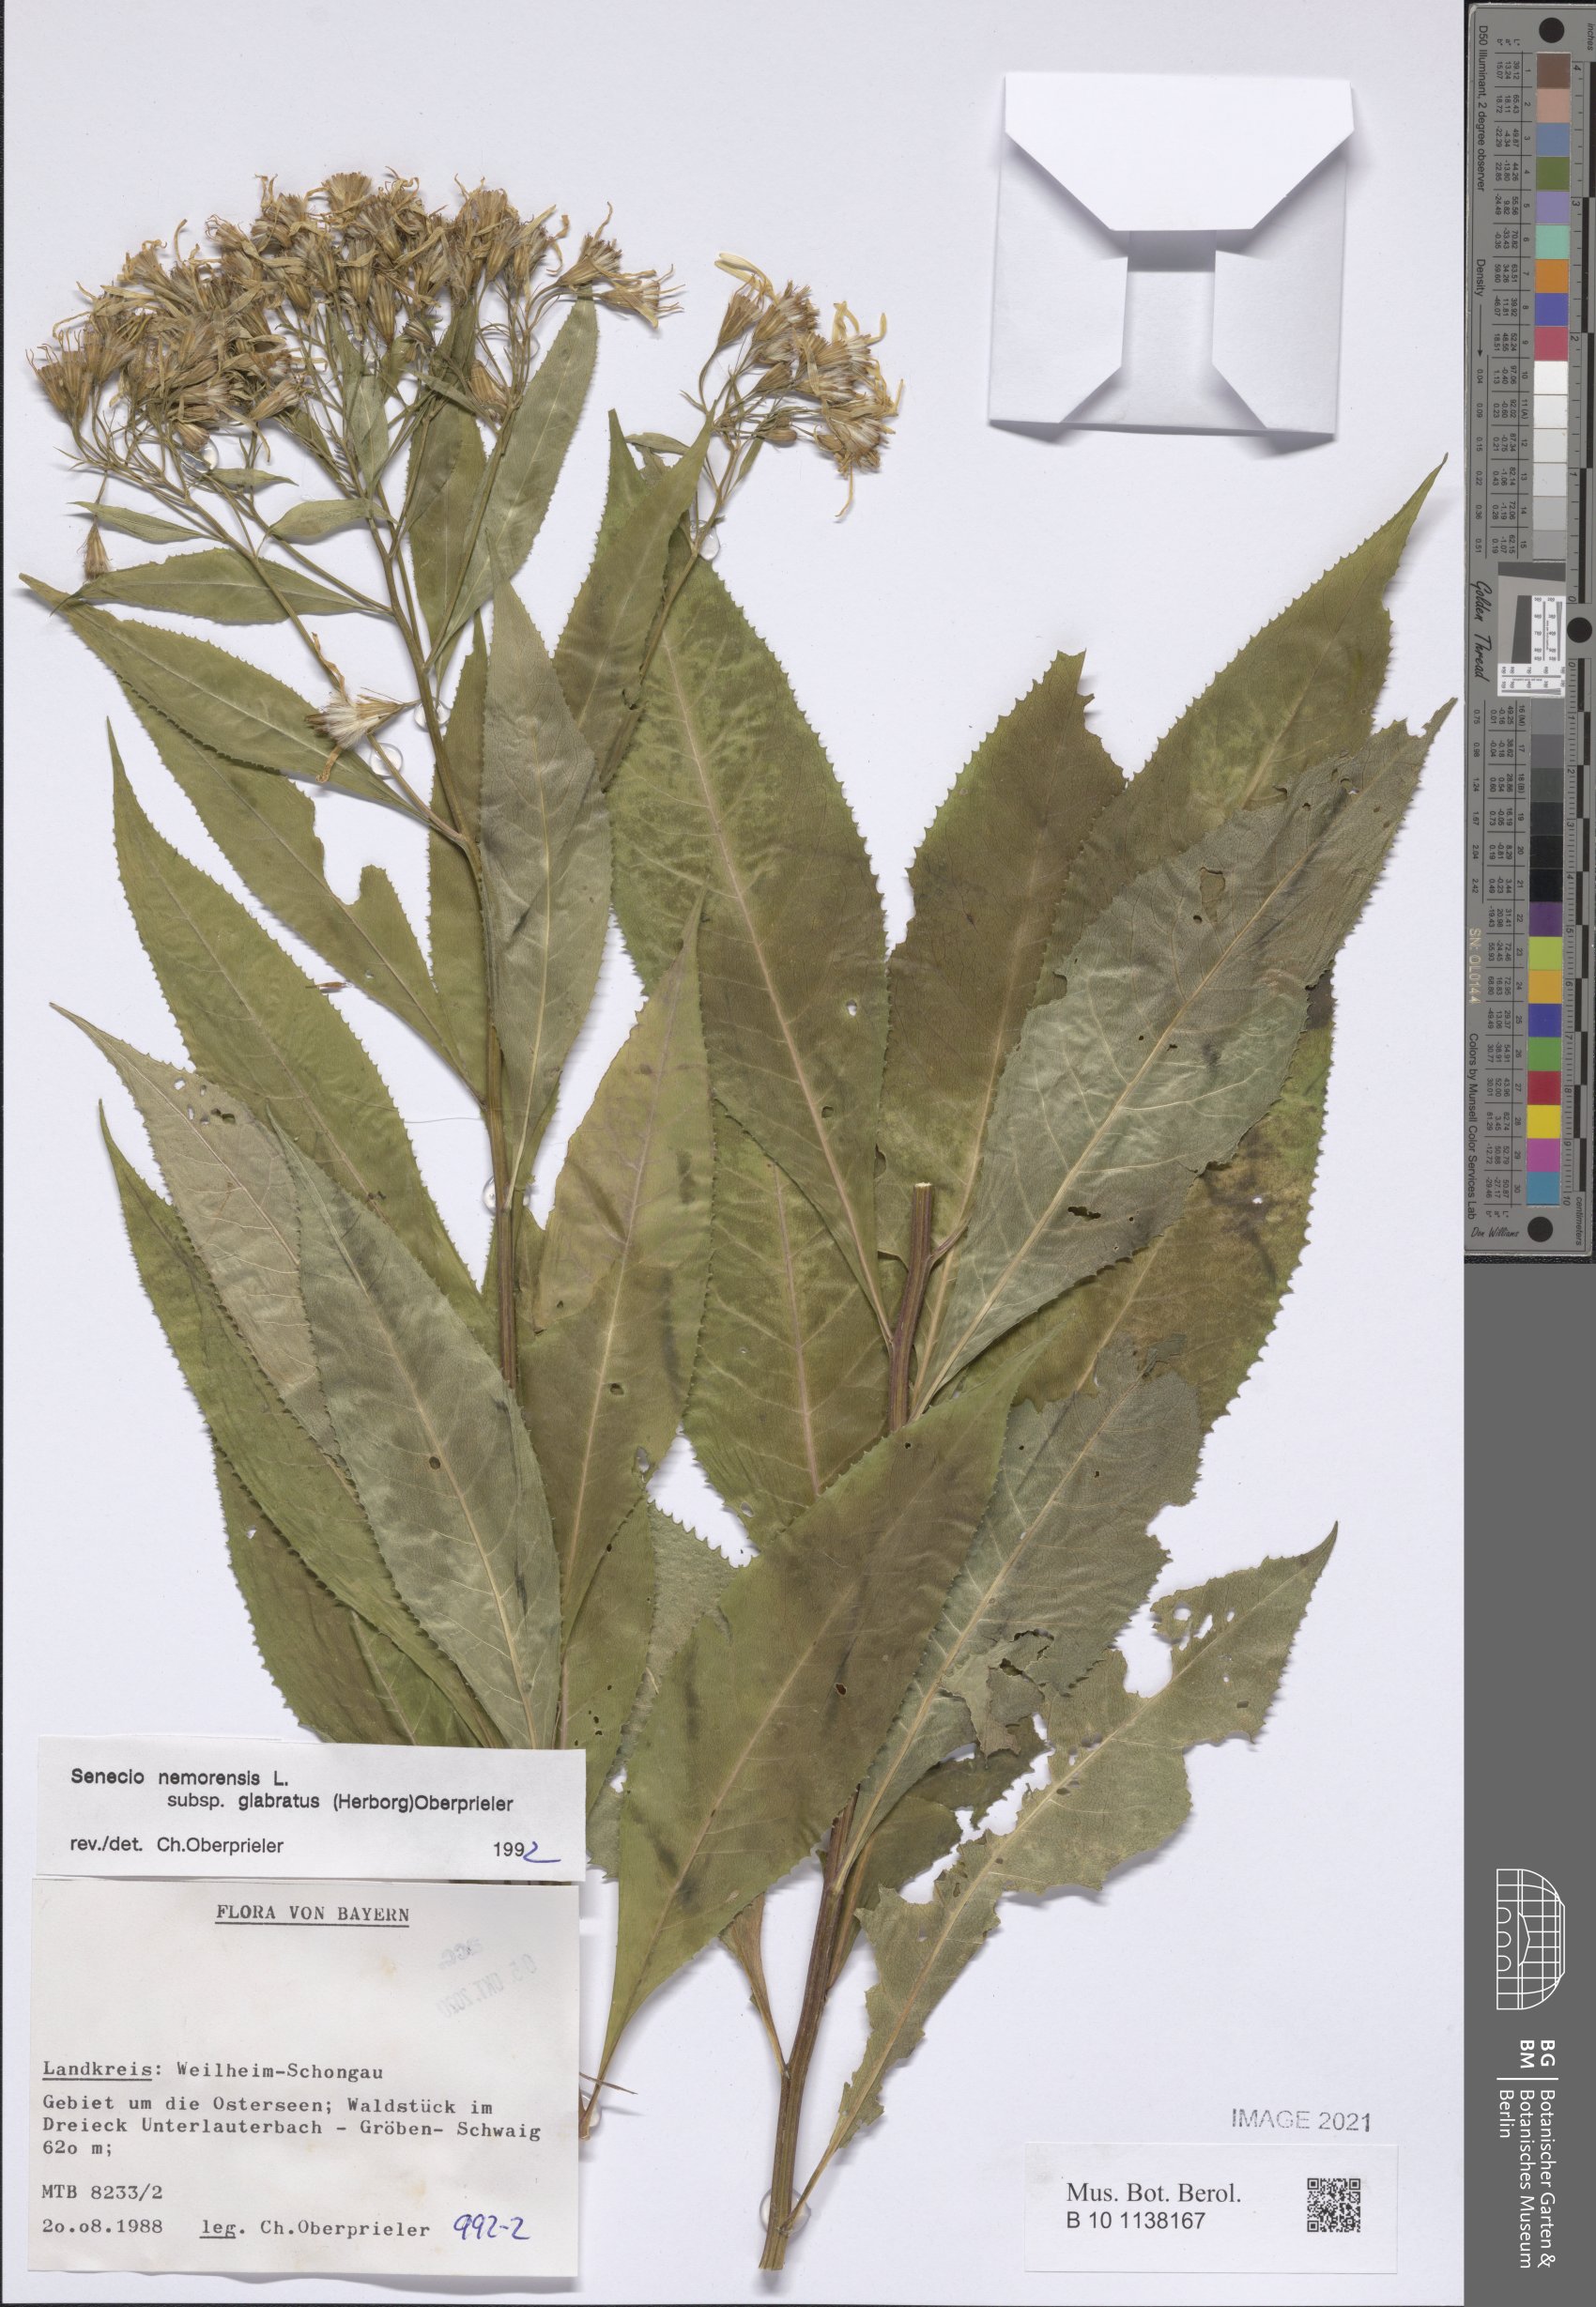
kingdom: Plantae
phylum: Tracheophyta
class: Magnoliopsida
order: Asterales
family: Asteraceae
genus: Senecio
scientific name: Senecio germanicus
